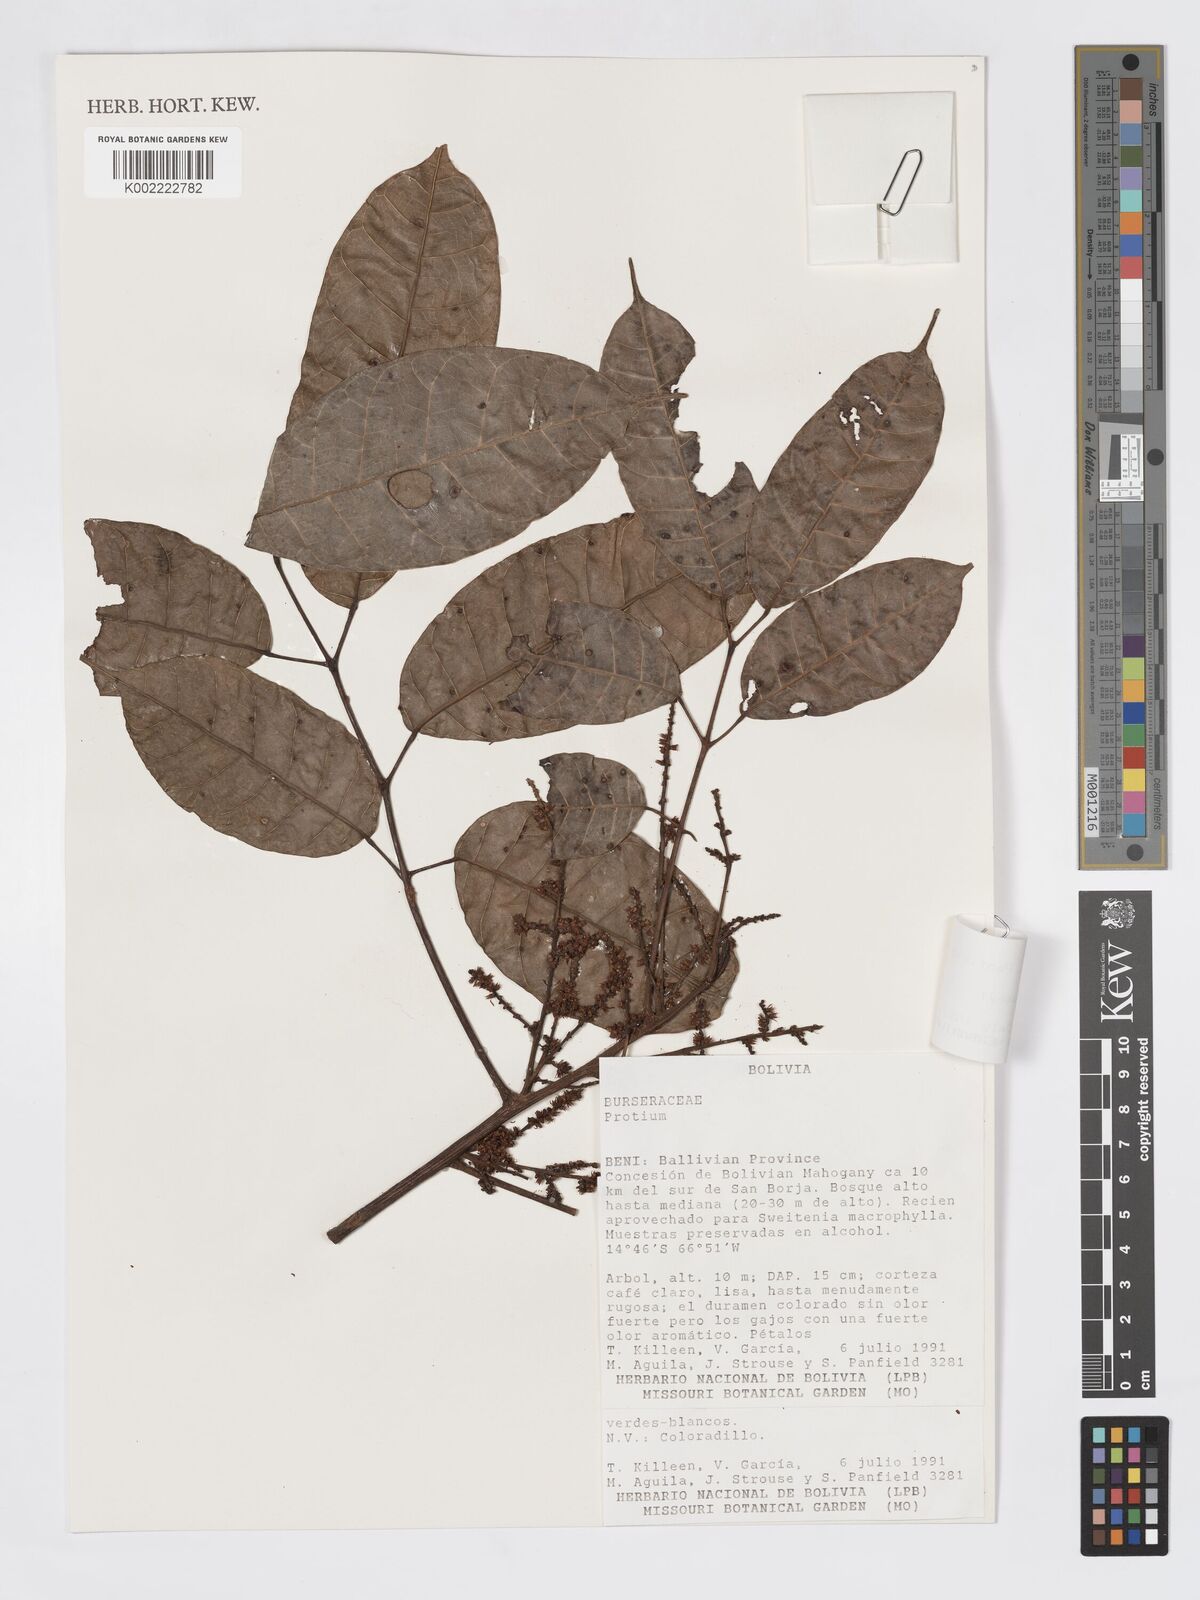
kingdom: Plantae
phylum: Tracheophyta
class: Magnoliopsida
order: Sapindales
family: Burseraceae
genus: Protium
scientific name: Protium rhynchophyllum
